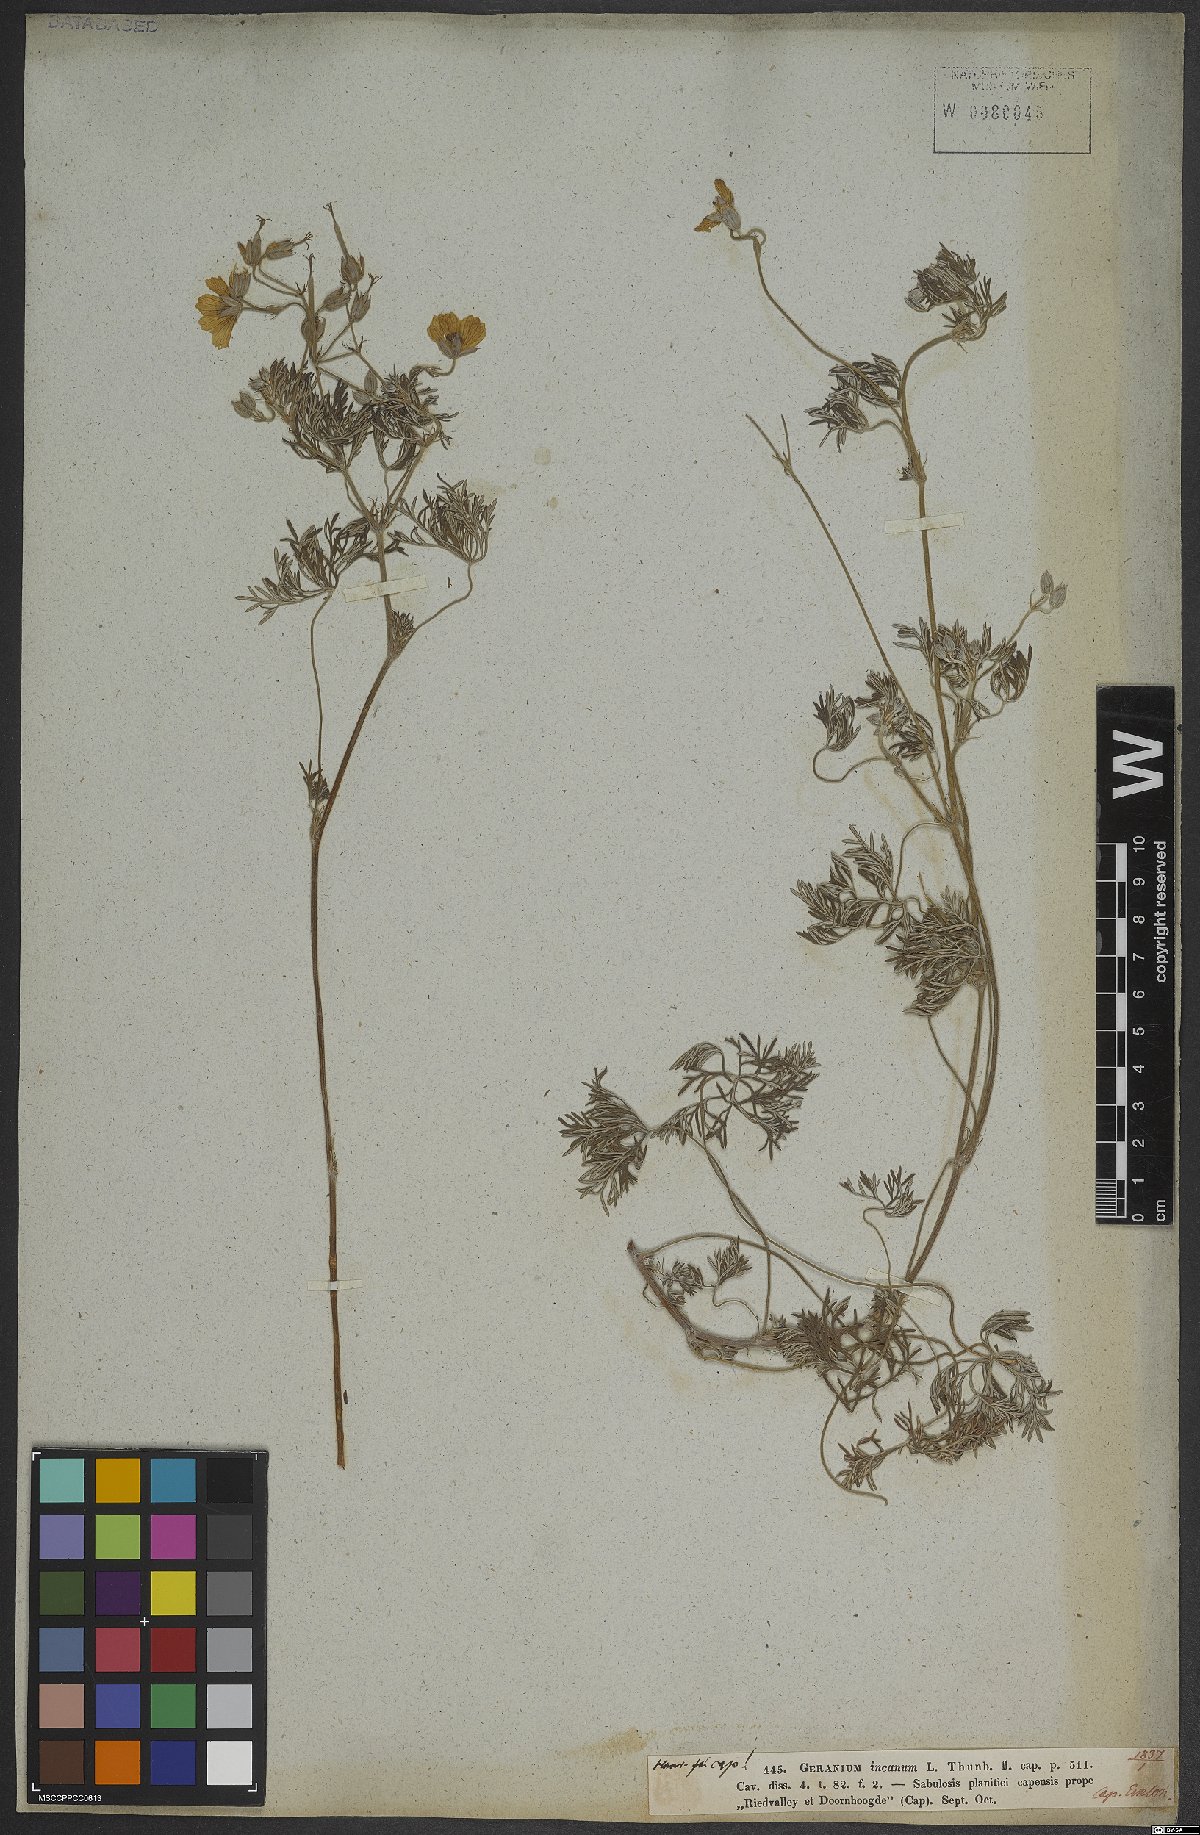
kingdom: Plantae
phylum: Tracheophyta
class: Magnoliopsida
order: Geraniales
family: Geraniaceae
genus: Geranium
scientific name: Geranium incanum
